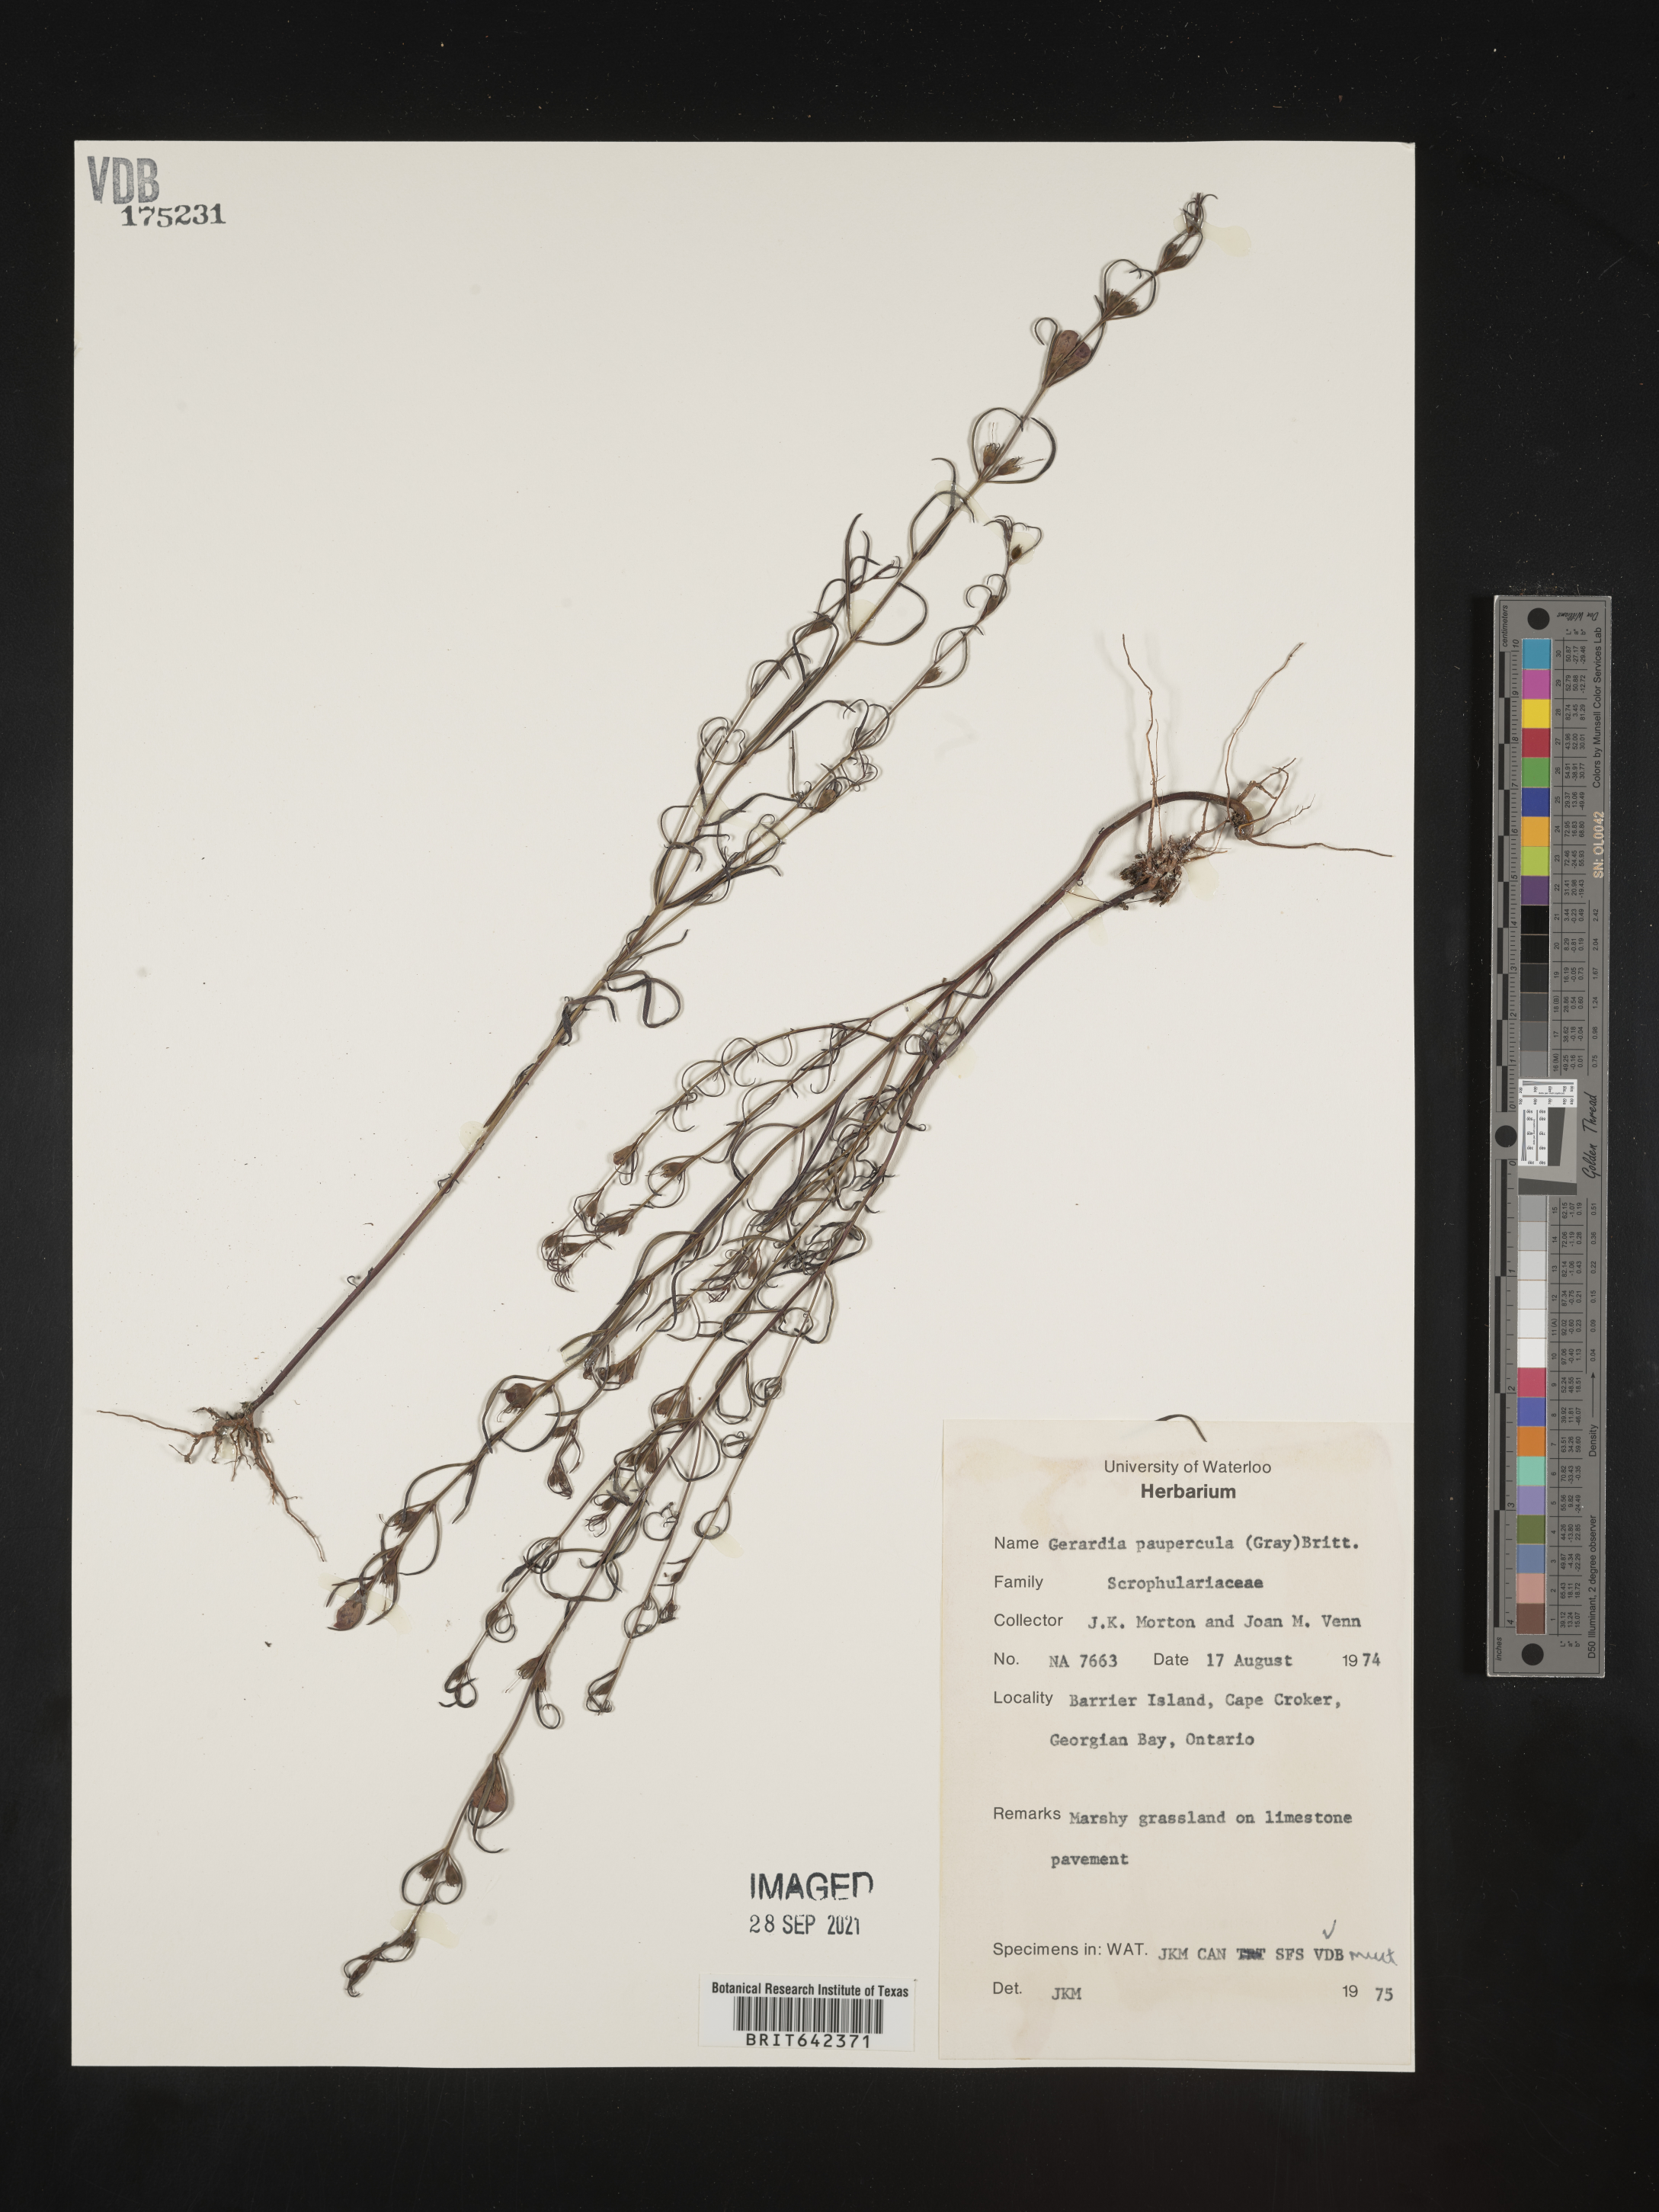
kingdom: Plantae
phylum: Tracheophyta
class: Magnoliopsida
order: Lamiales
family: Orobanchaceae
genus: Agalinis
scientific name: Agalinis
